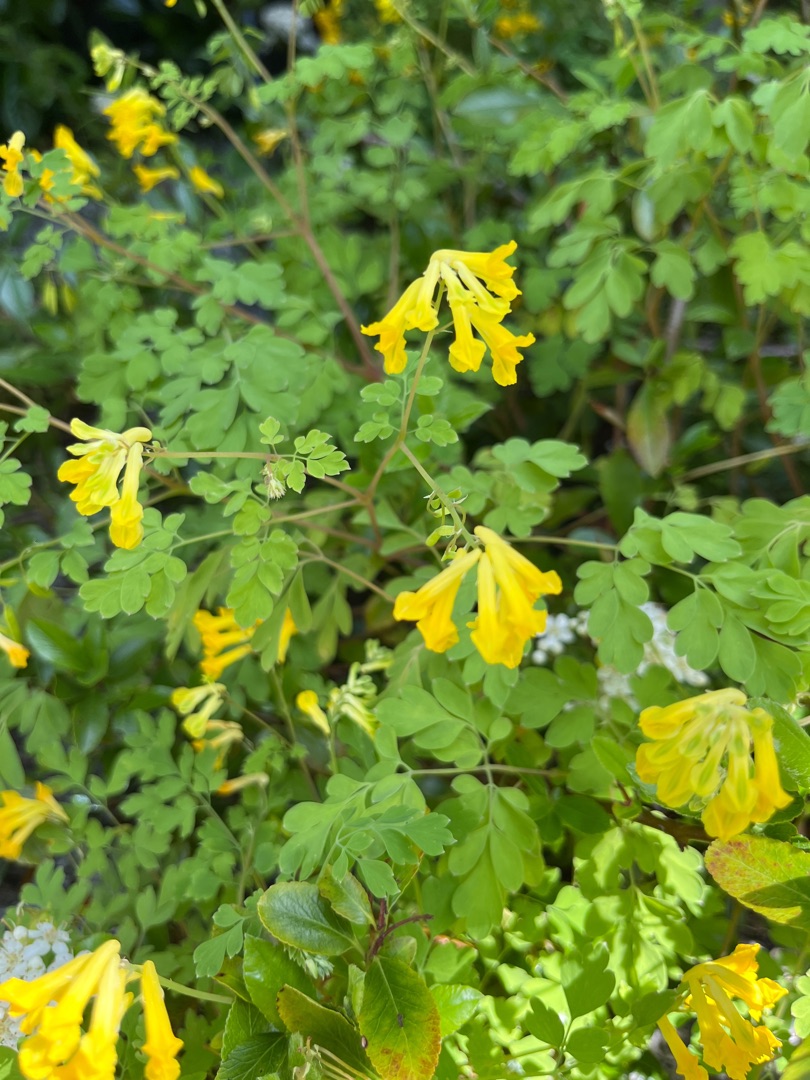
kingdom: Plantae
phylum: Tracheophyta
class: Magnoliopsida
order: Ranunculales
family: Papaveraceae
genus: Pseudofumaria
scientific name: Pseudofumaria lutea
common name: Gul lærkespore
